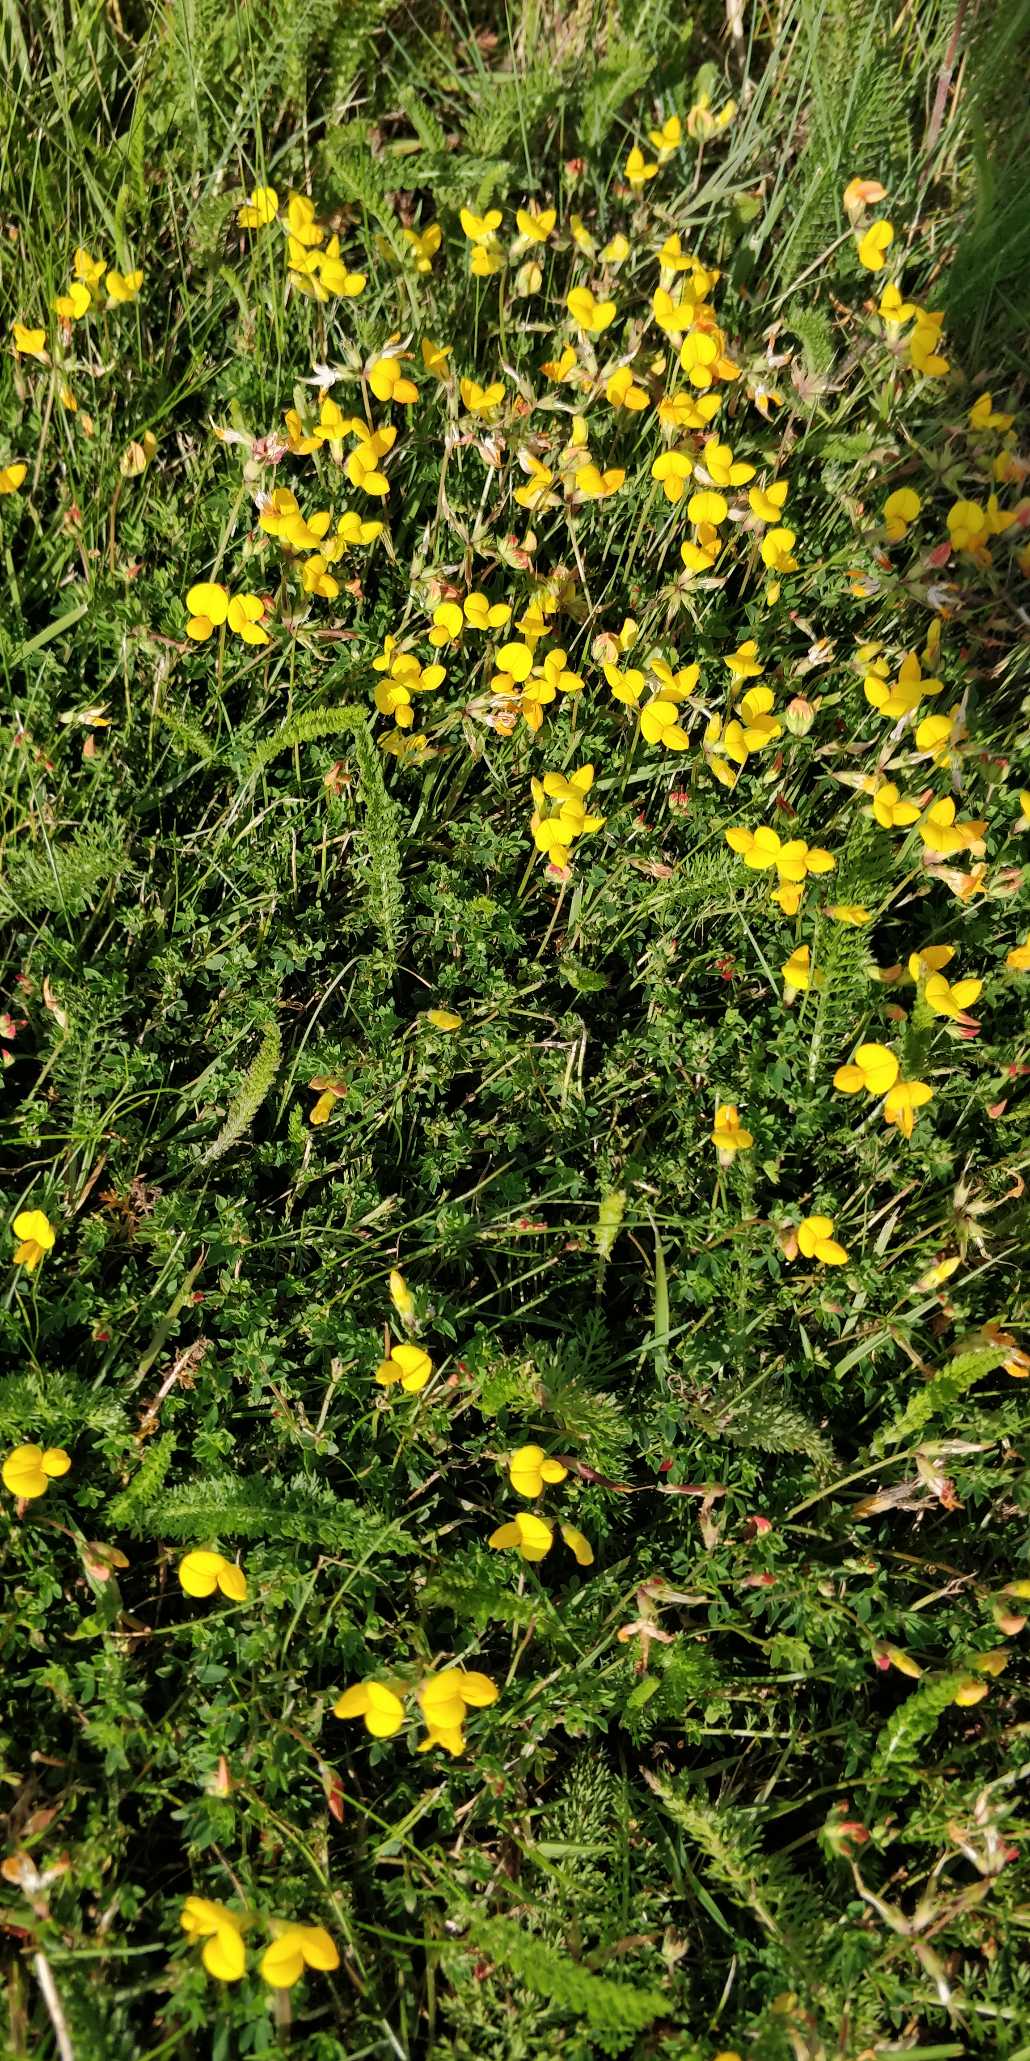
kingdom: Plantae
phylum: Tracheophyta
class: Magnoliopsida
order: Fabales
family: Fabaceae
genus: Lotus
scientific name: Lotus corniculatus
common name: Almindelig kællingetand
